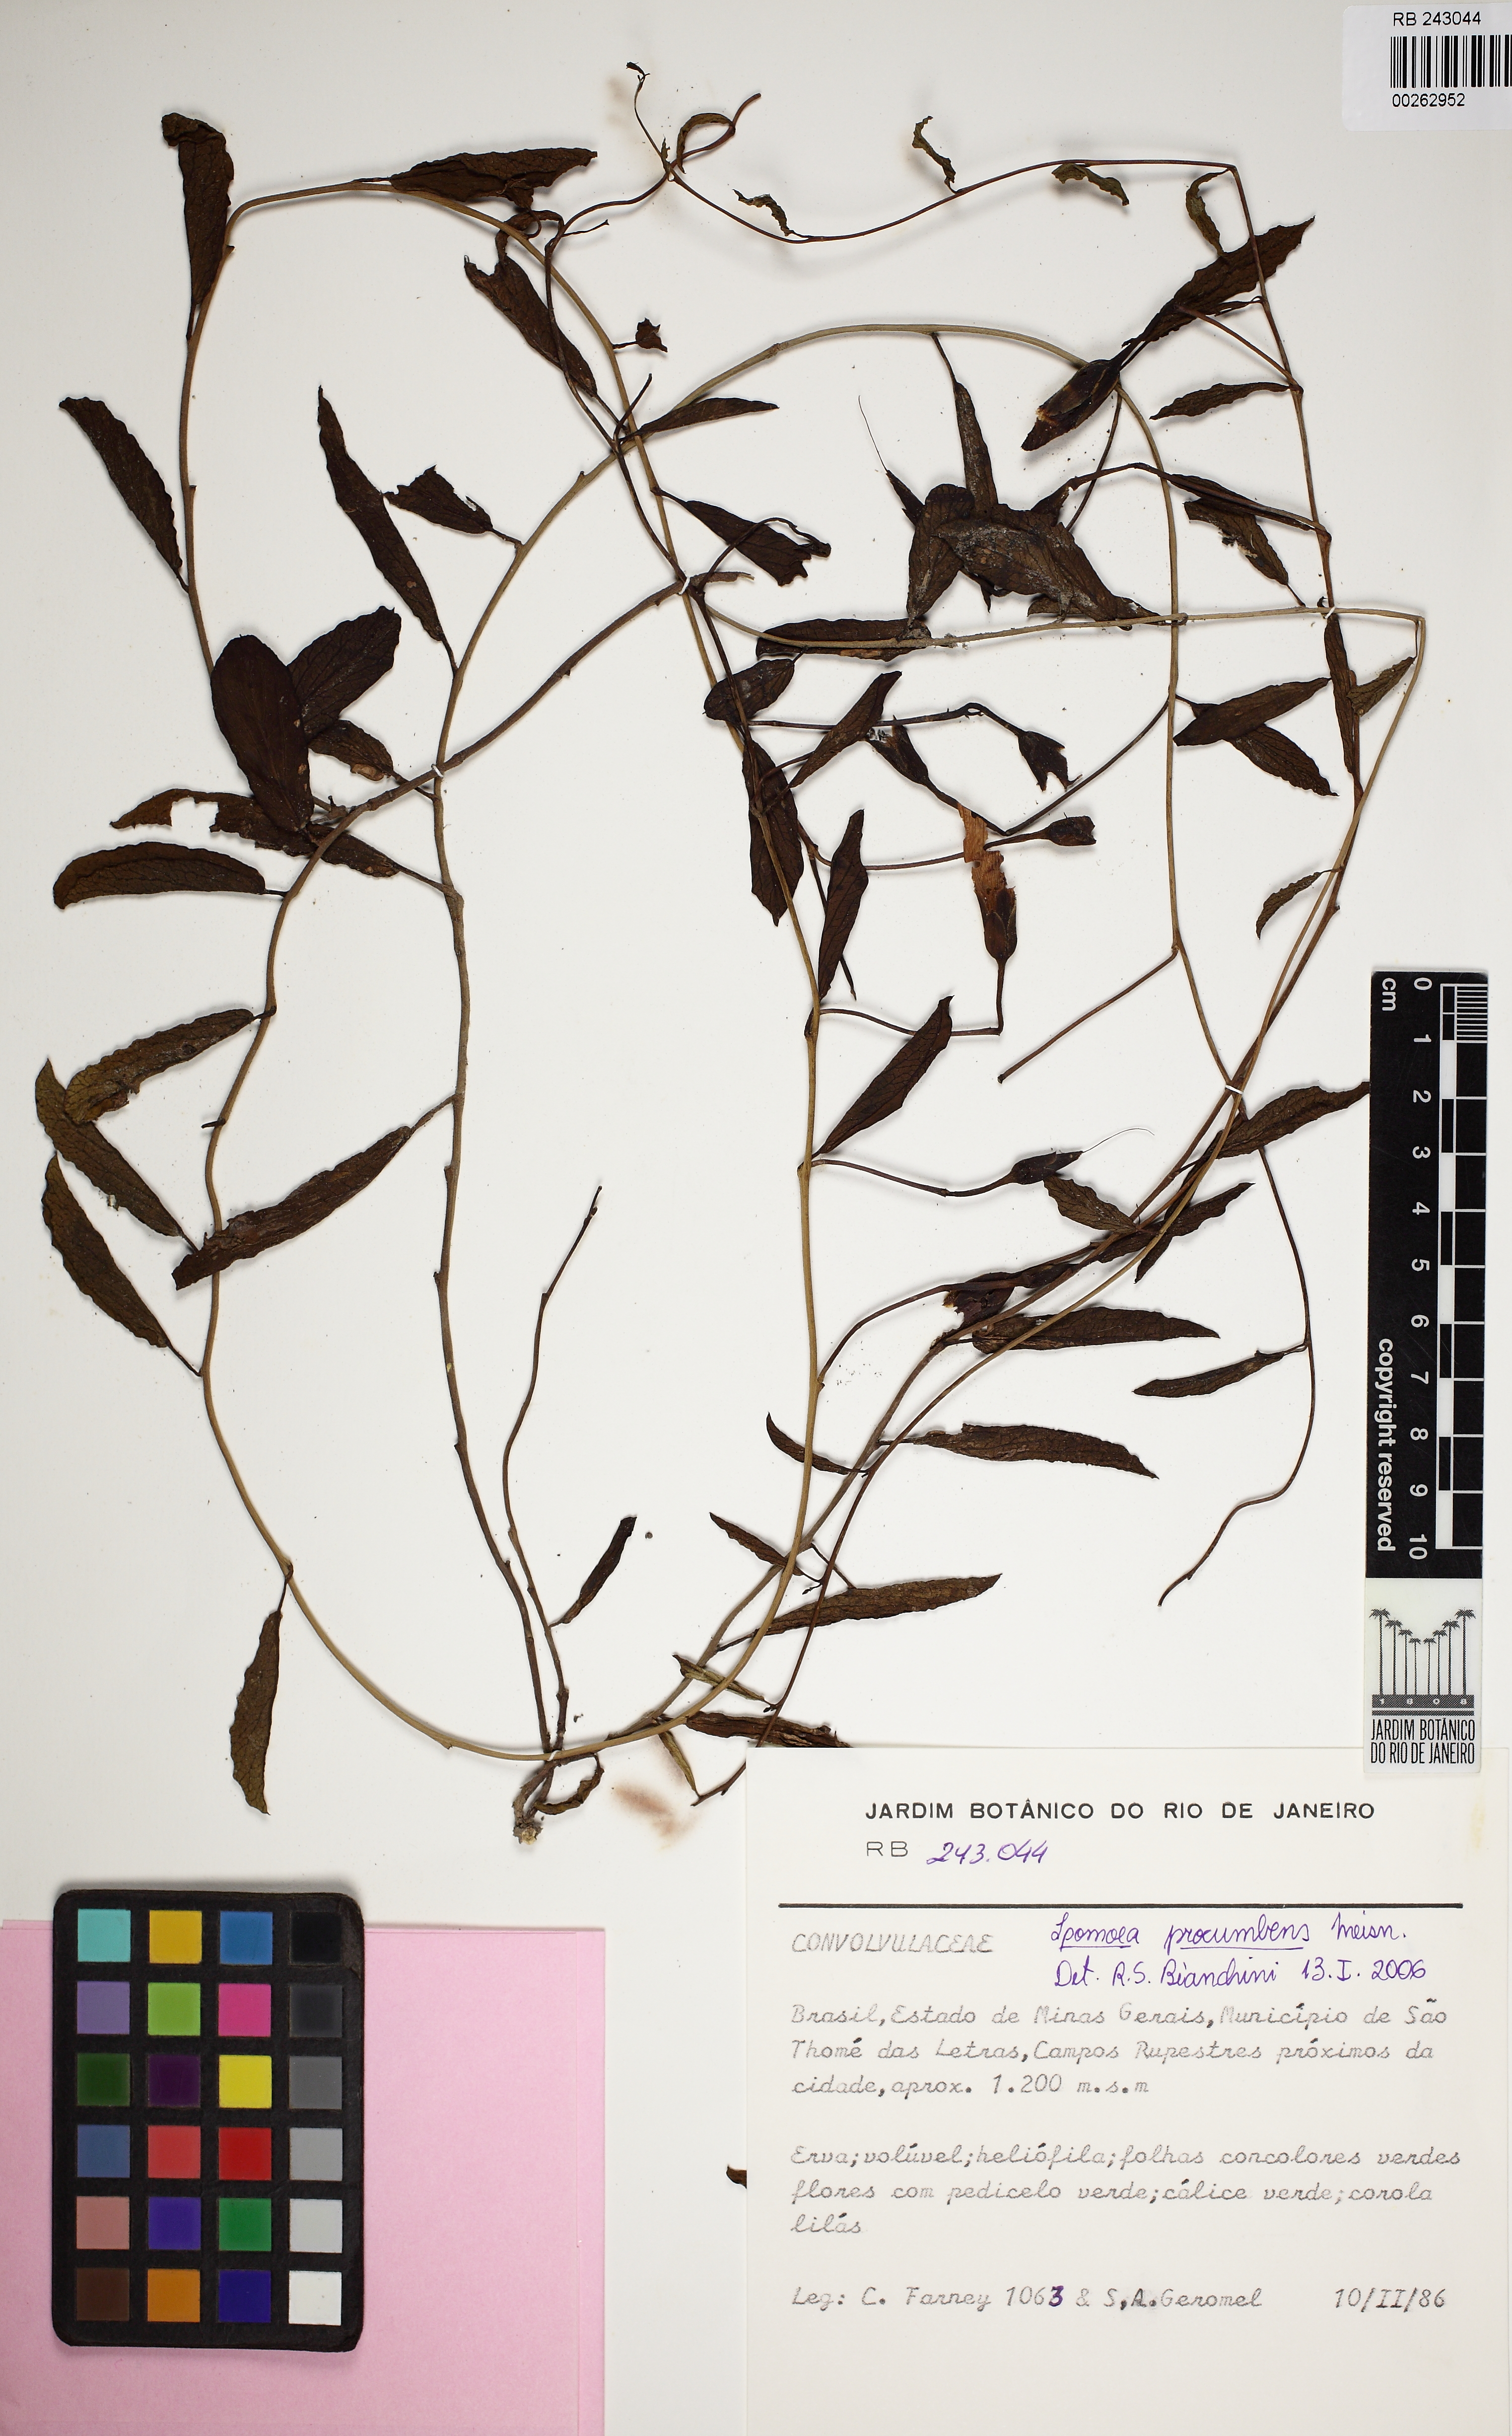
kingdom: Plantae
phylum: Tracheophyta
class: Magnoliopsida
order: Solanales
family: Convolvulaceae
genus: Ipomoea
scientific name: Ipomoea procumbens
